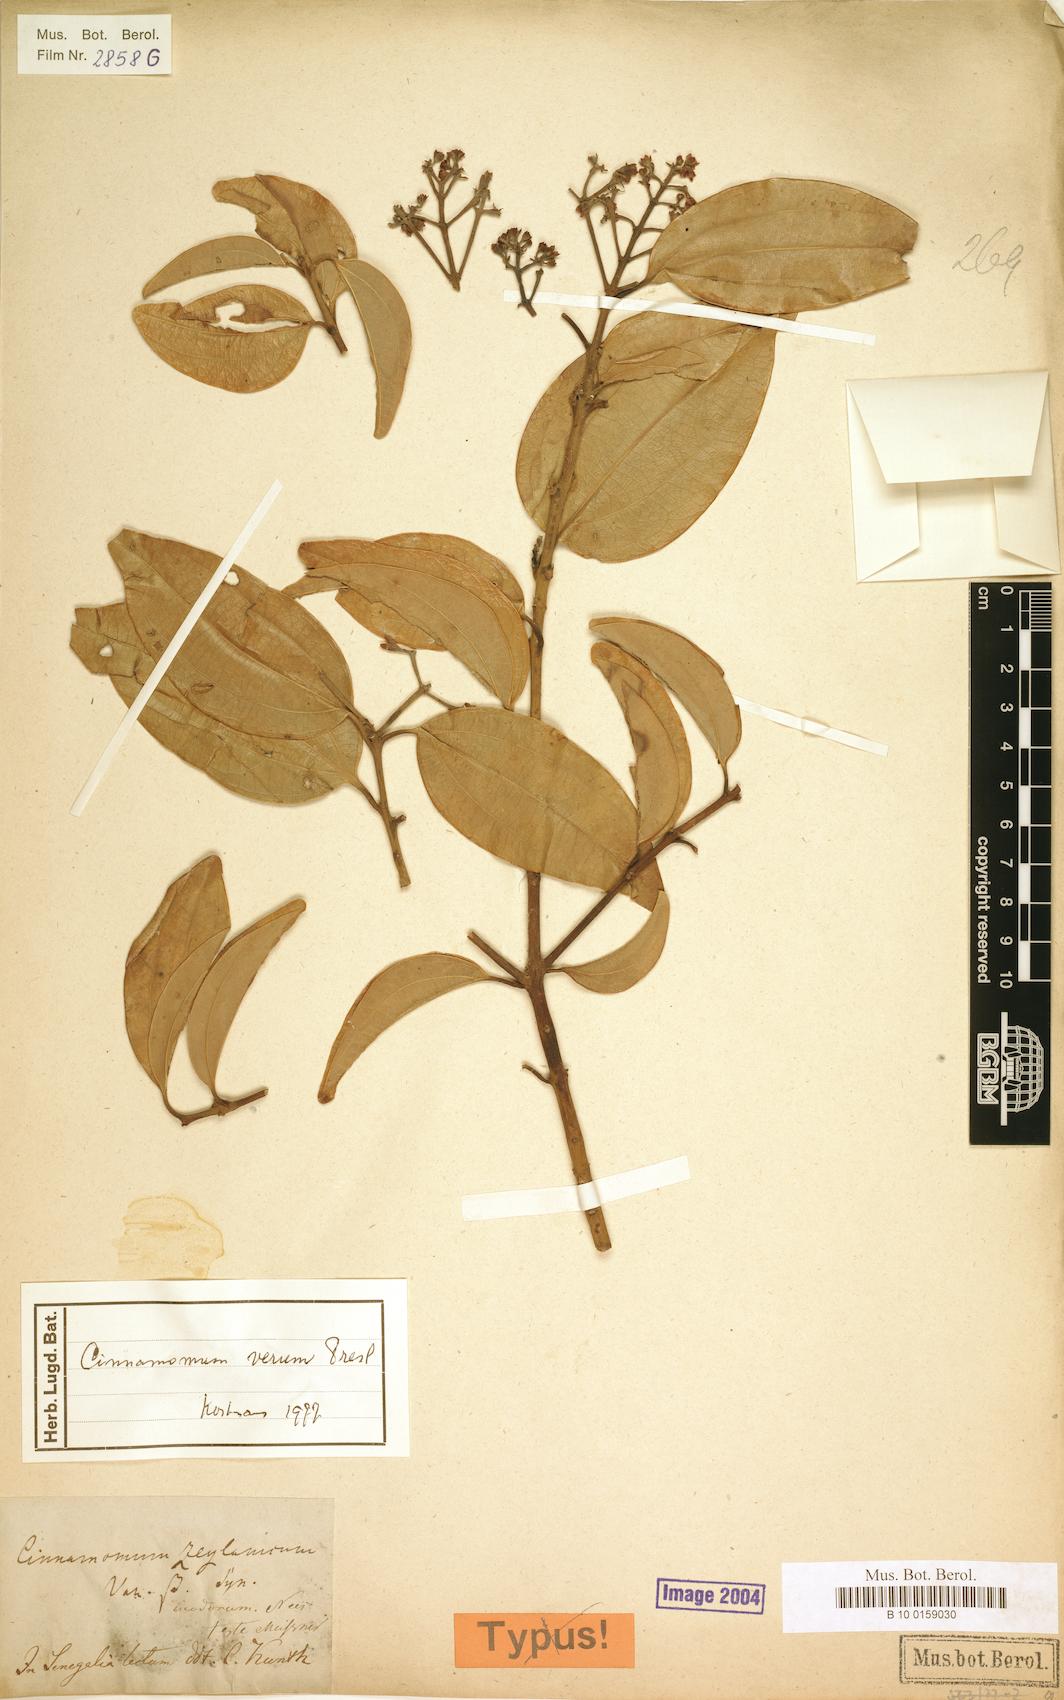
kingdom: Plantae
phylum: Tracheophyta
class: Magnoliopsida
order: Laurales
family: Lauraceae
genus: Cinnamomum
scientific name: Cinnamomum verum
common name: Cinnamon
